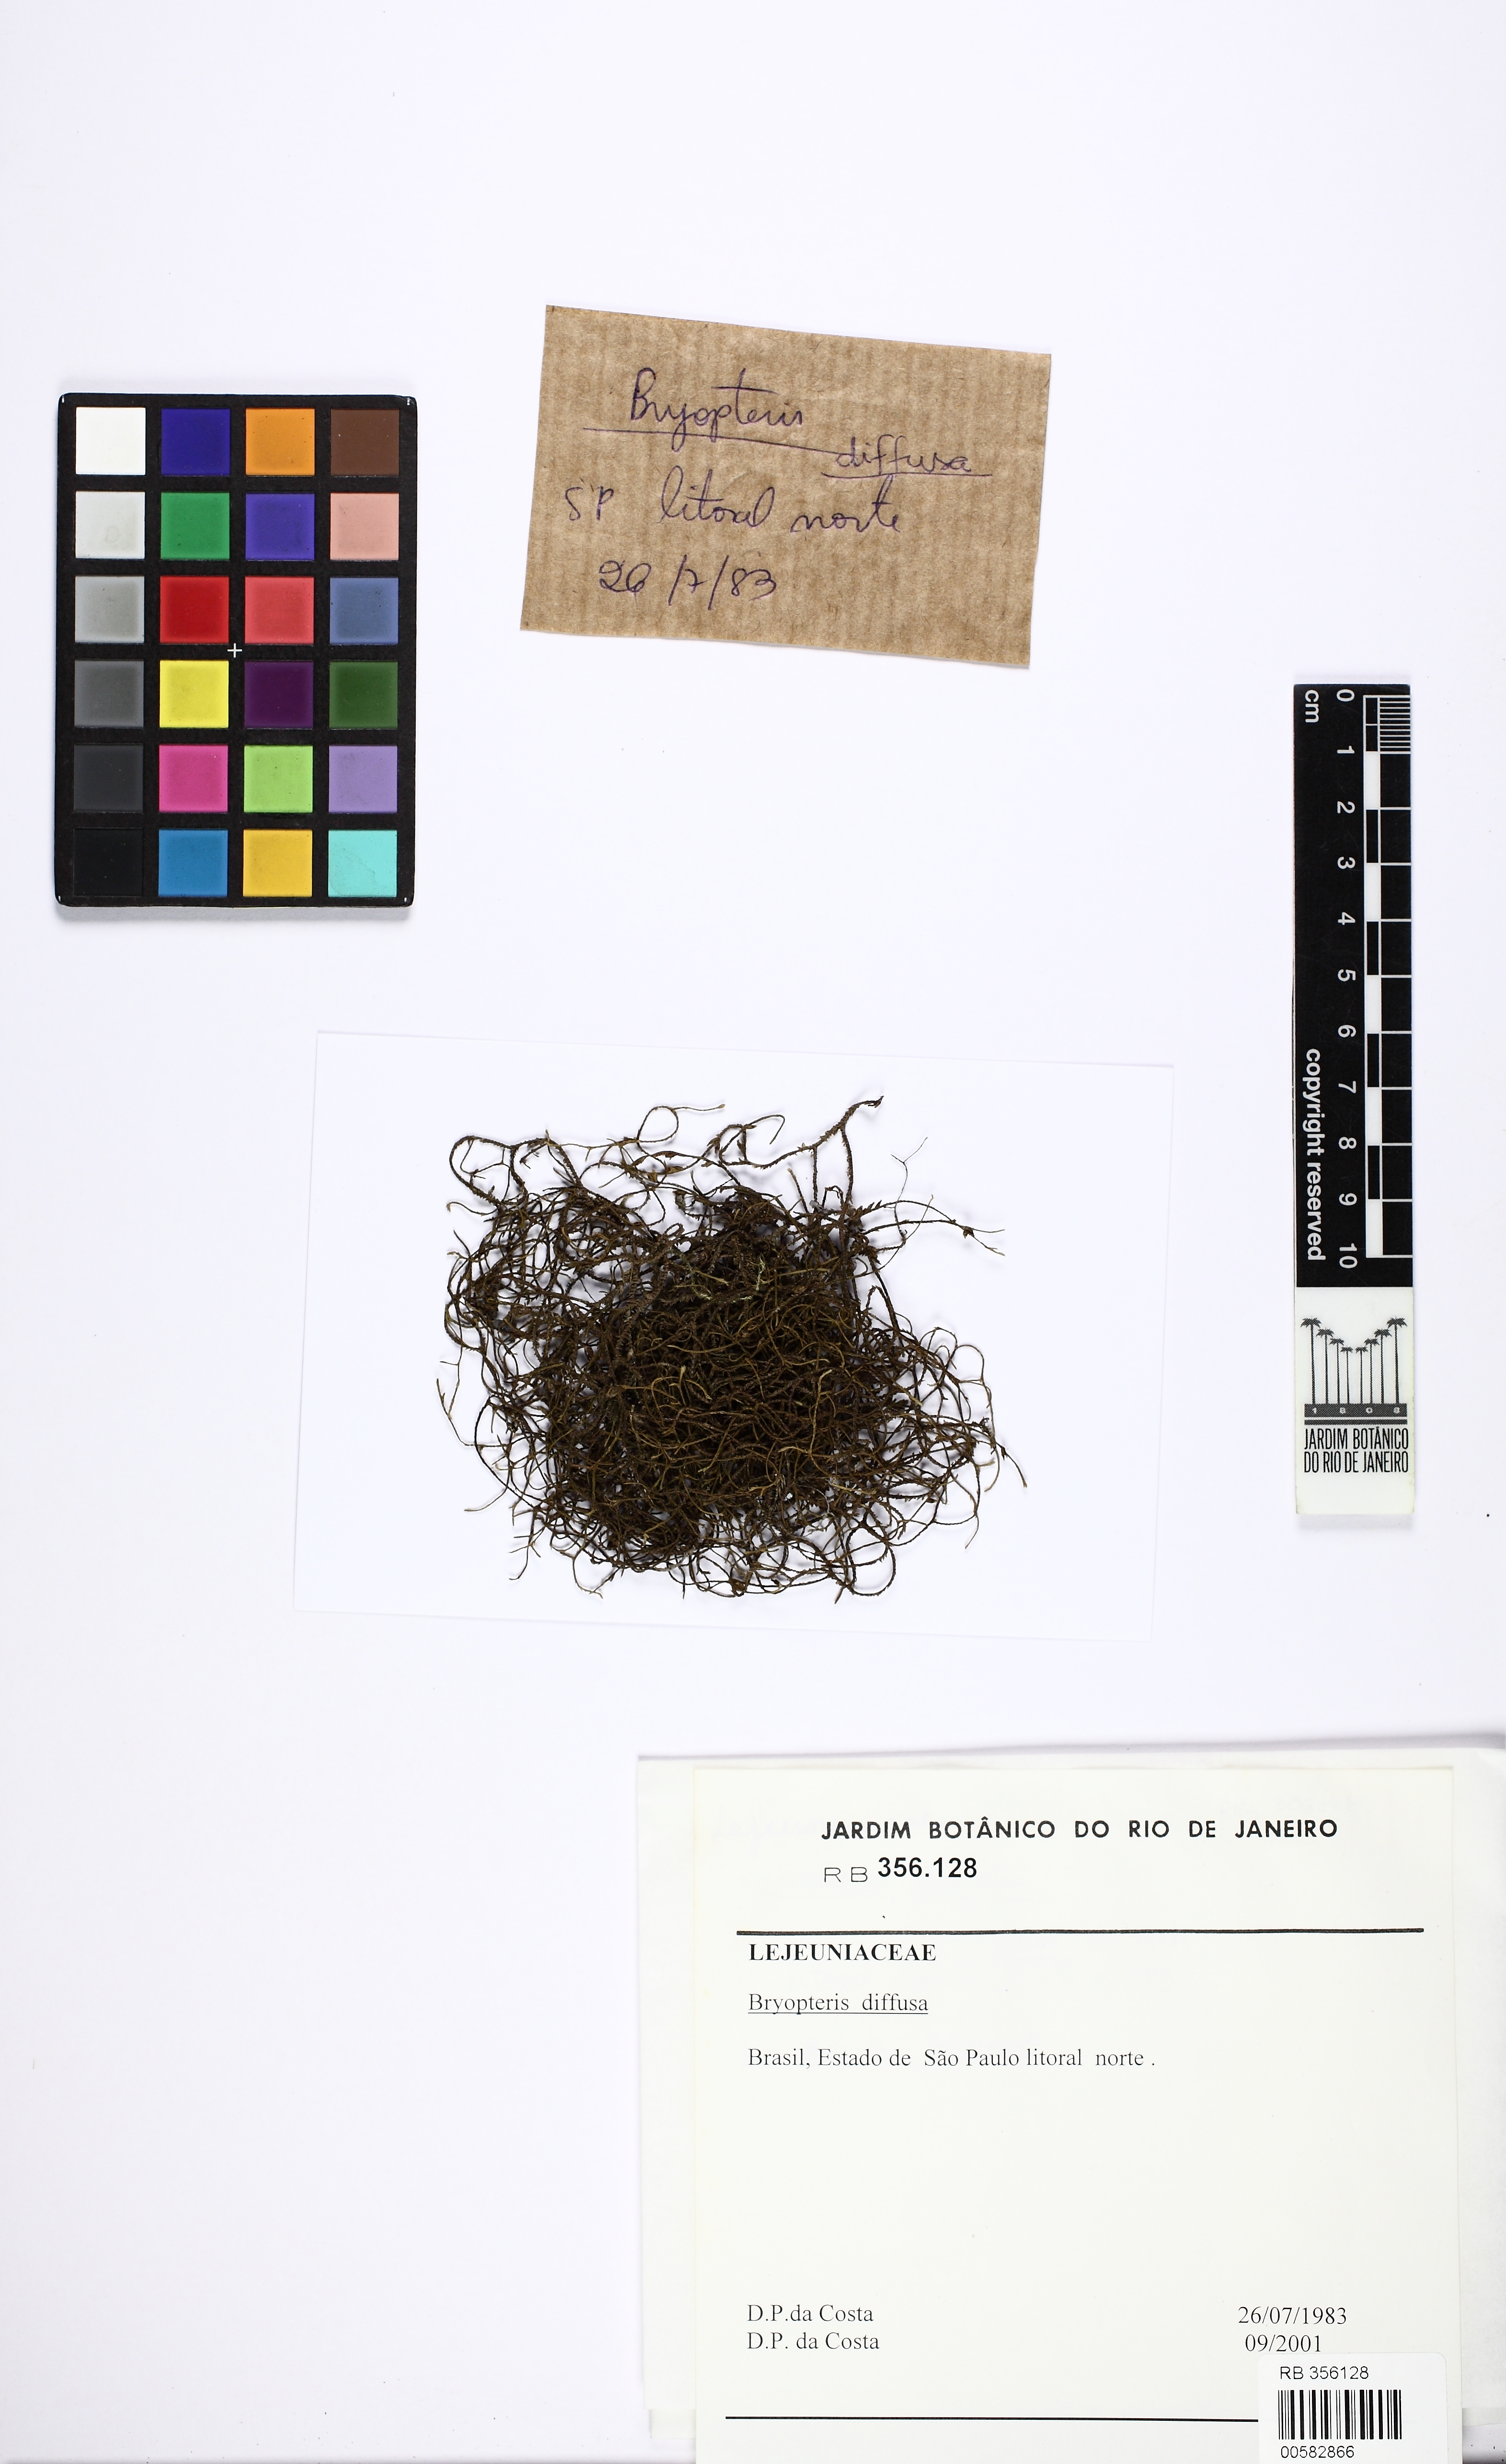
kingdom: Plantae
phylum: Marchantiophyta
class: Jungermanniopsida
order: Porellales
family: Lejeuneaceae
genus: Bryopteris
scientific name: Bryopteris diffusa
